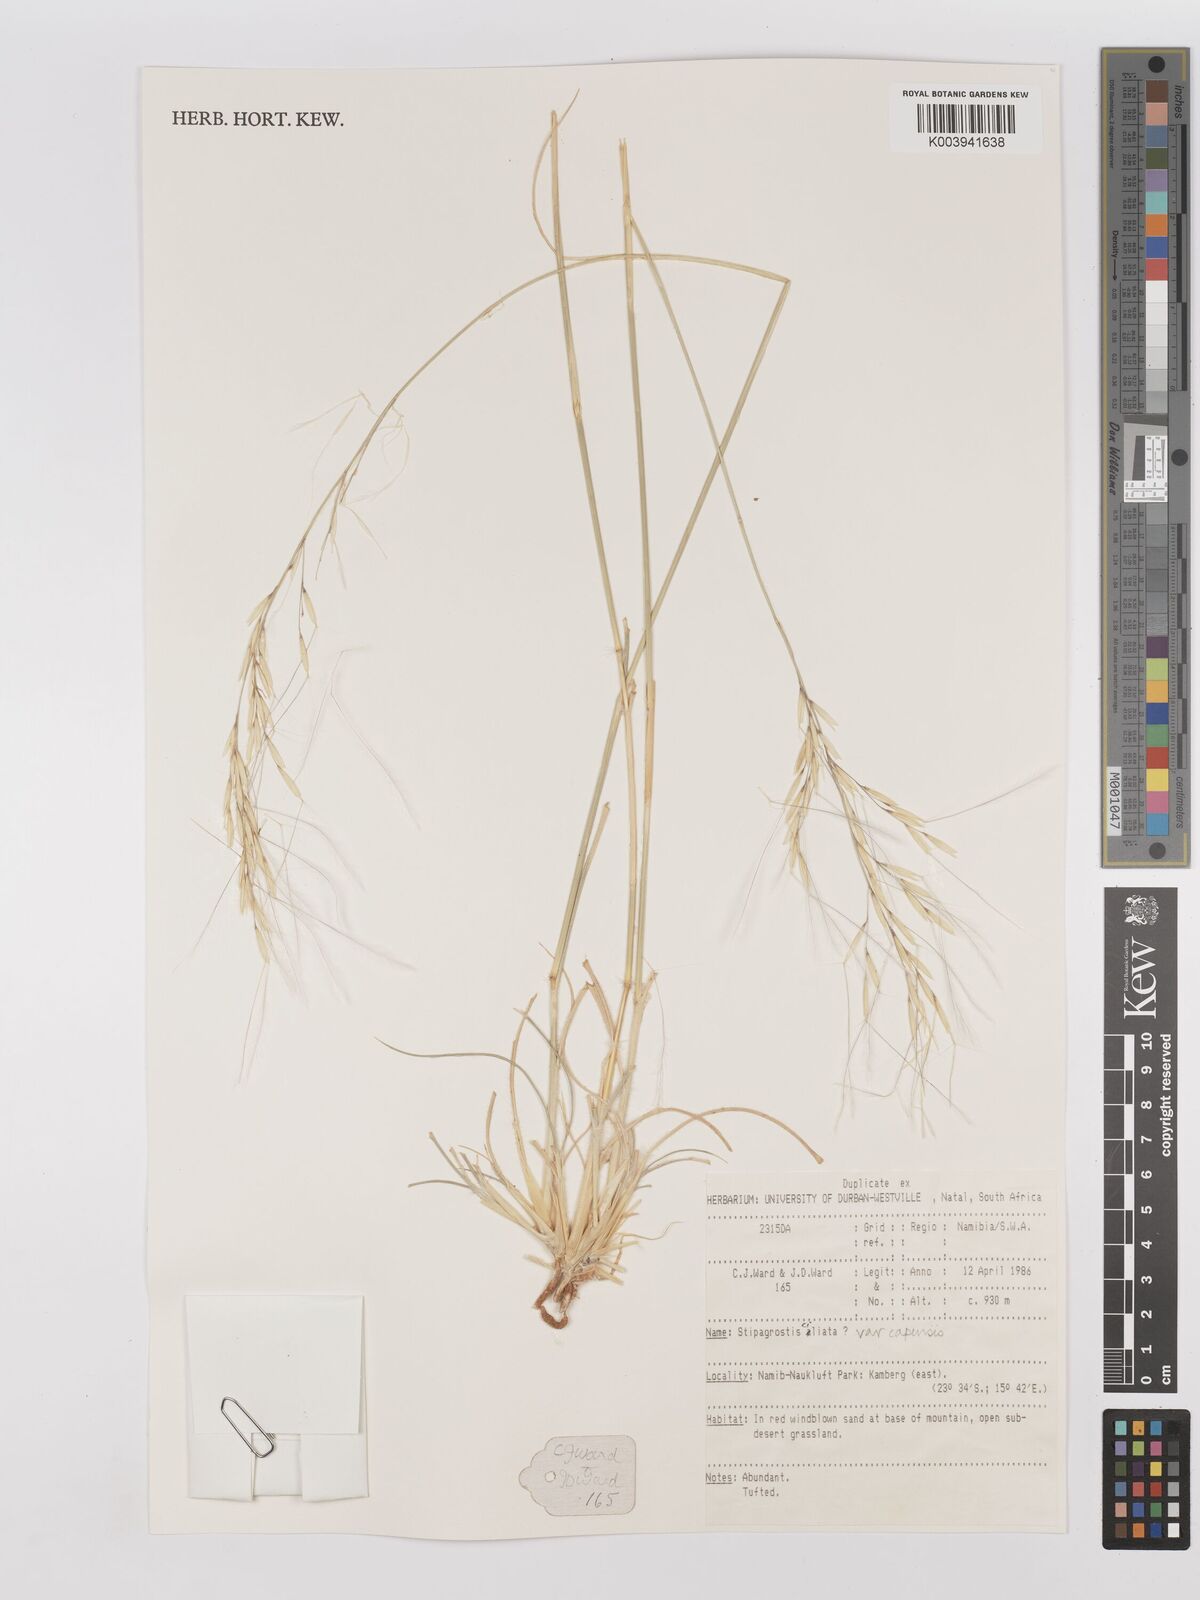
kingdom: Plantae
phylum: Tracheophyta
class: Liliopsida
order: Poales
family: Poaceae
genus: Stipagrostis
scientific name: Stipagrostis ciliata
